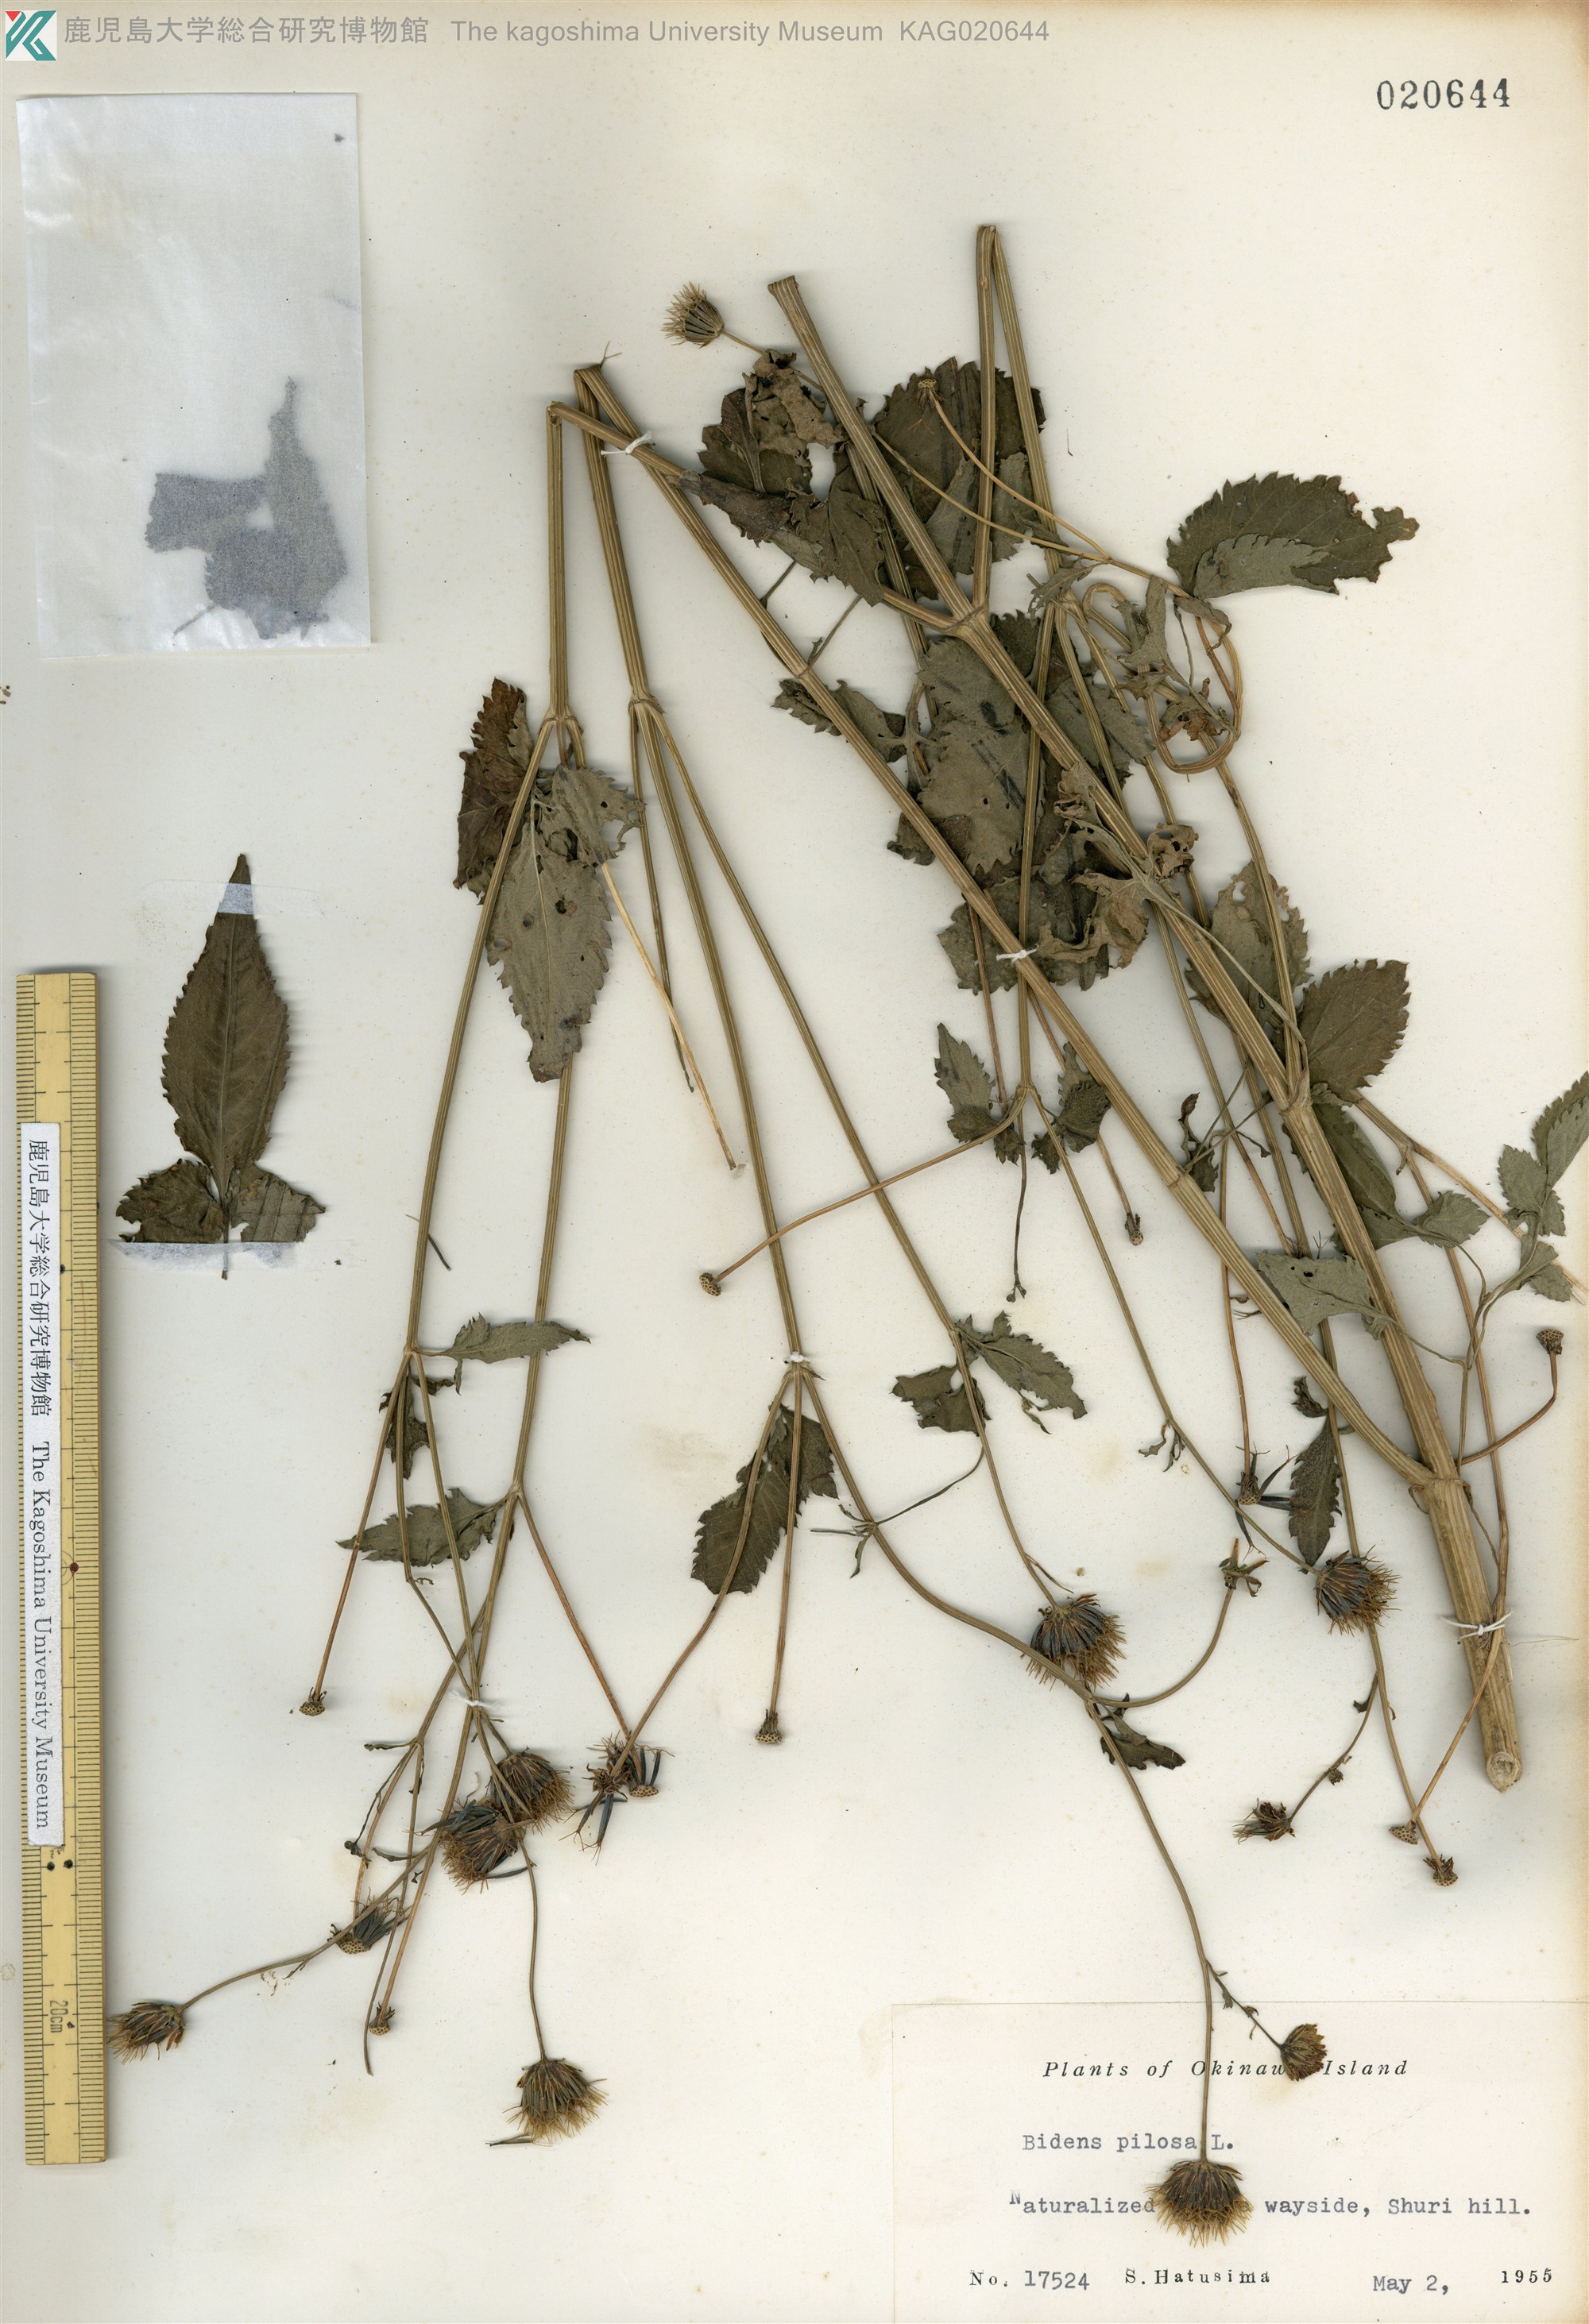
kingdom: Plantae
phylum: Tracheophyta
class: Magnoliopsida
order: Asterales
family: Asteraceae
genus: Bidens
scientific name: Bidens pilosa
